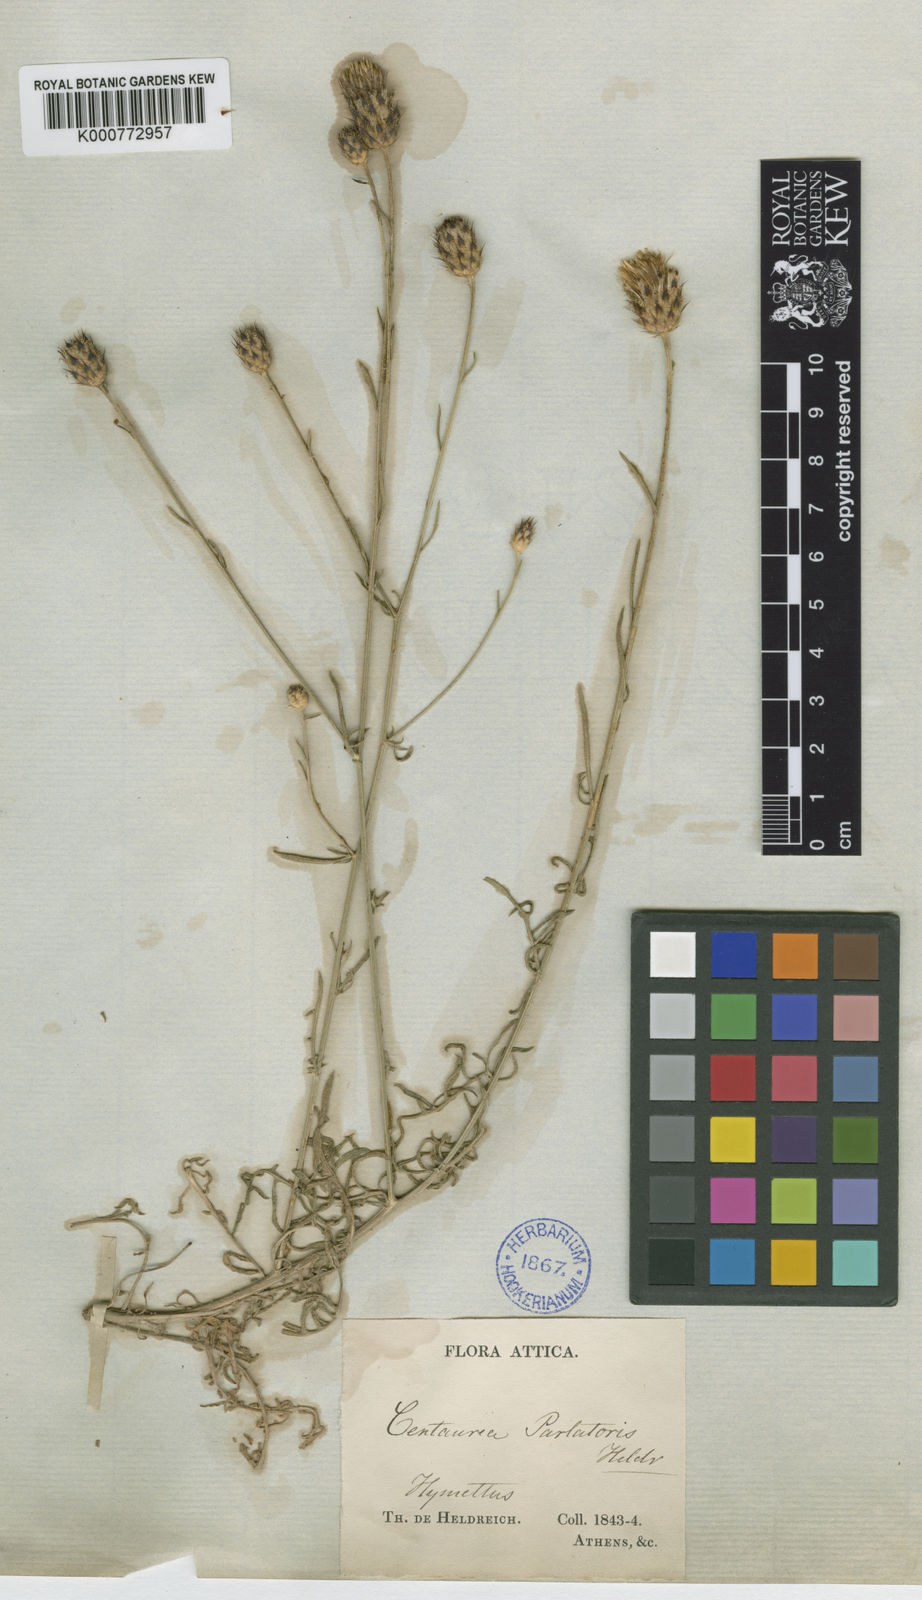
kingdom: Plantae
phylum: Tracheophyta
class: Magnoliopsida
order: Asterales
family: Asteraceae
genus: Centaurea
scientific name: Centaurea attica
